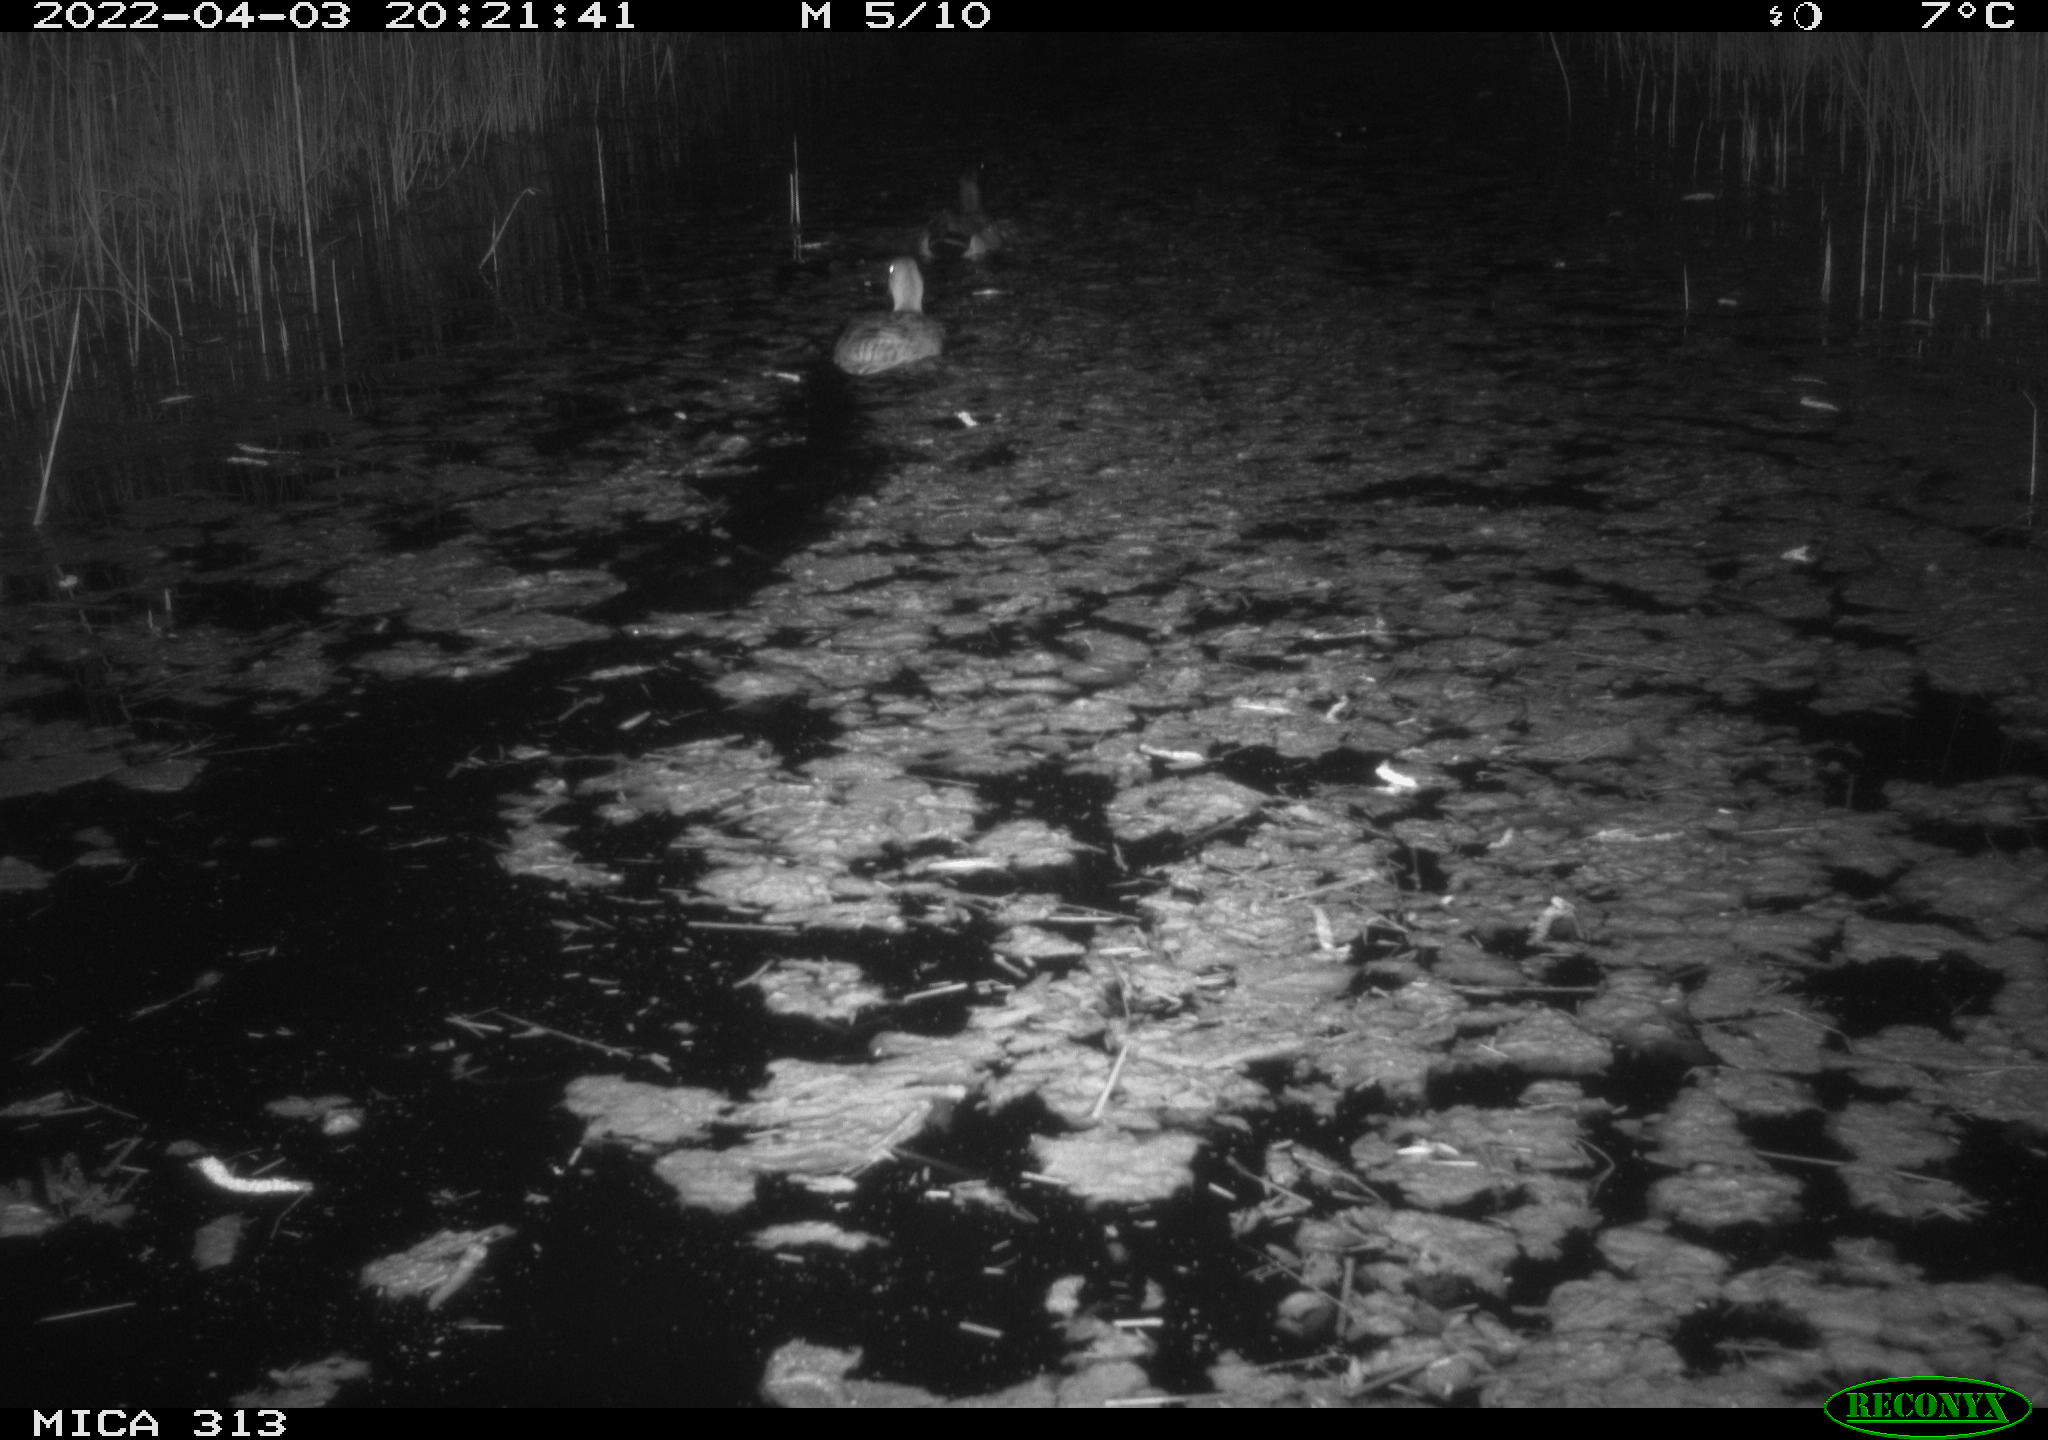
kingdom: Animalia
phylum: Chordata
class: Aves
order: Anseriformes
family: Anatidae
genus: Anas
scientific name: Anas platyrhynchos
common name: Mallard
